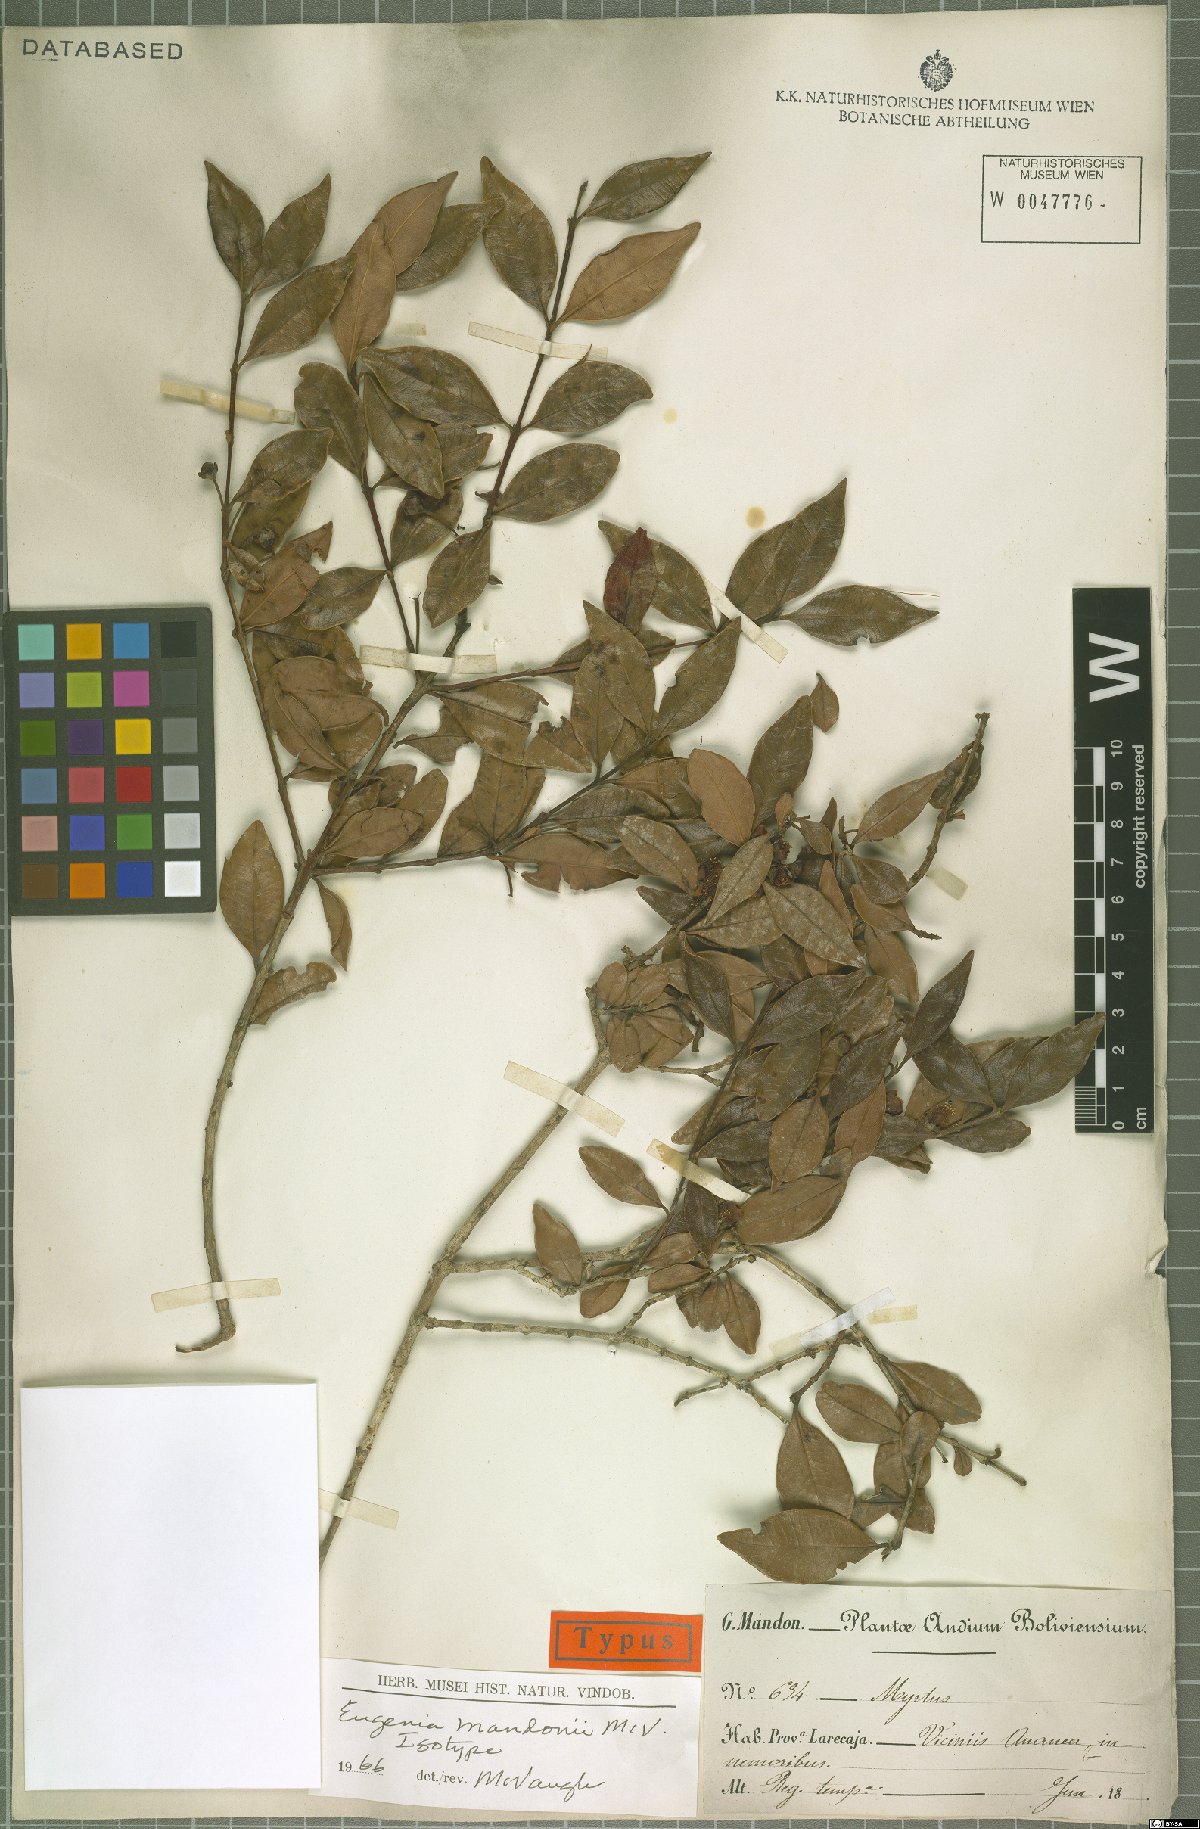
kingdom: Plantae
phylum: Tracheophyta
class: Magnoliopsida
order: Myrtales
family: Myrtaceae
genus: Eugenia
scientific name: Eugenia mandonii
